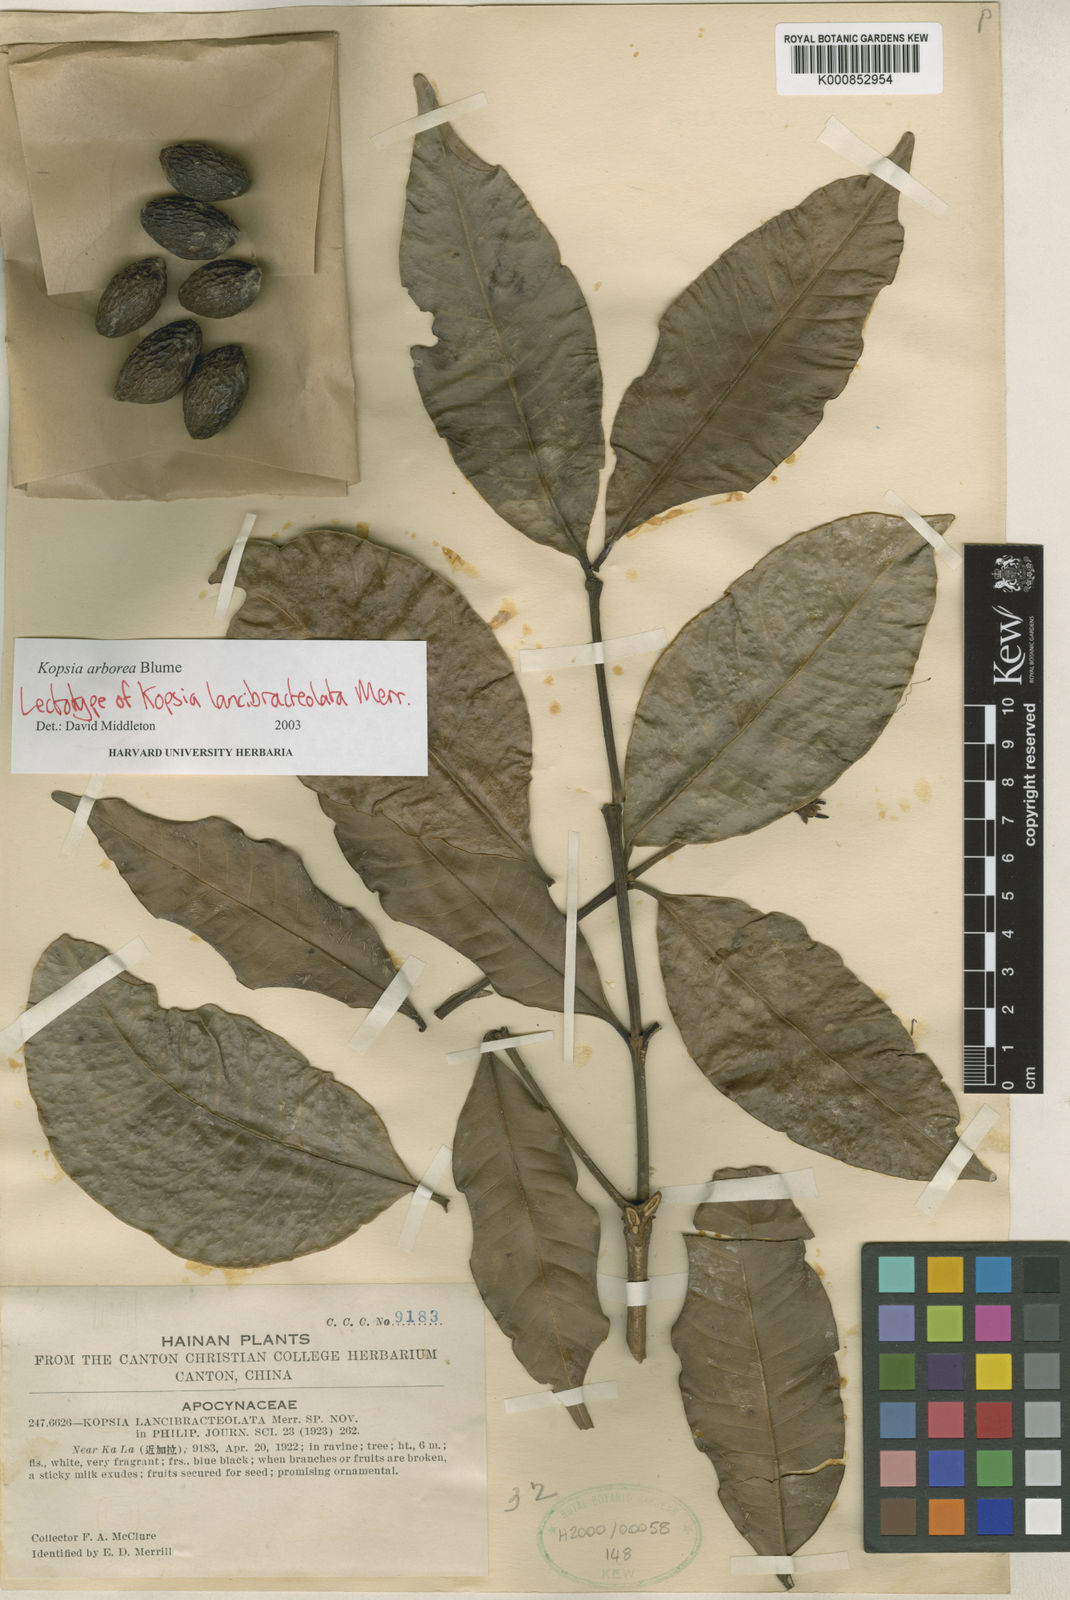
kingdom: Plantae
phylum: Tracheophyta
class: Magnoliopsida
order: Gentianales
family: Apocynaceae
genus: Kopsia
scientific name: Kopsia arborea
